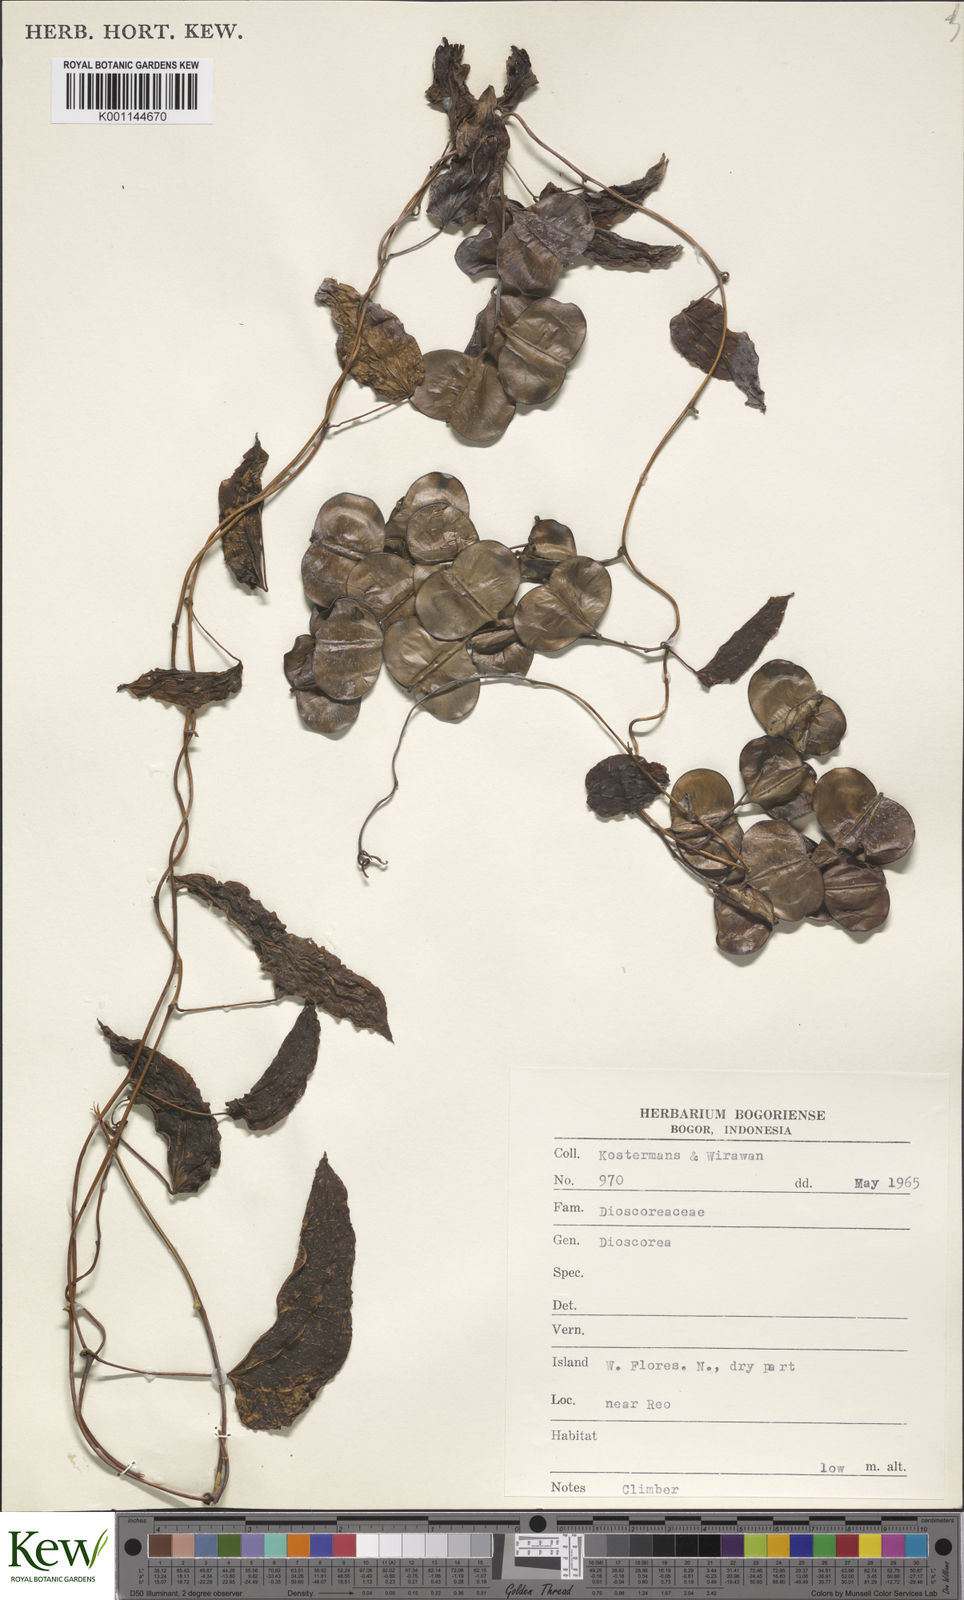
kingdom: Plantae
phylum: Tracheophyta
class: Liliopsida
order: Dioscoreales
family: Dioscoreaceae
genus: Dioscorea
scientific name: Dioscorea
